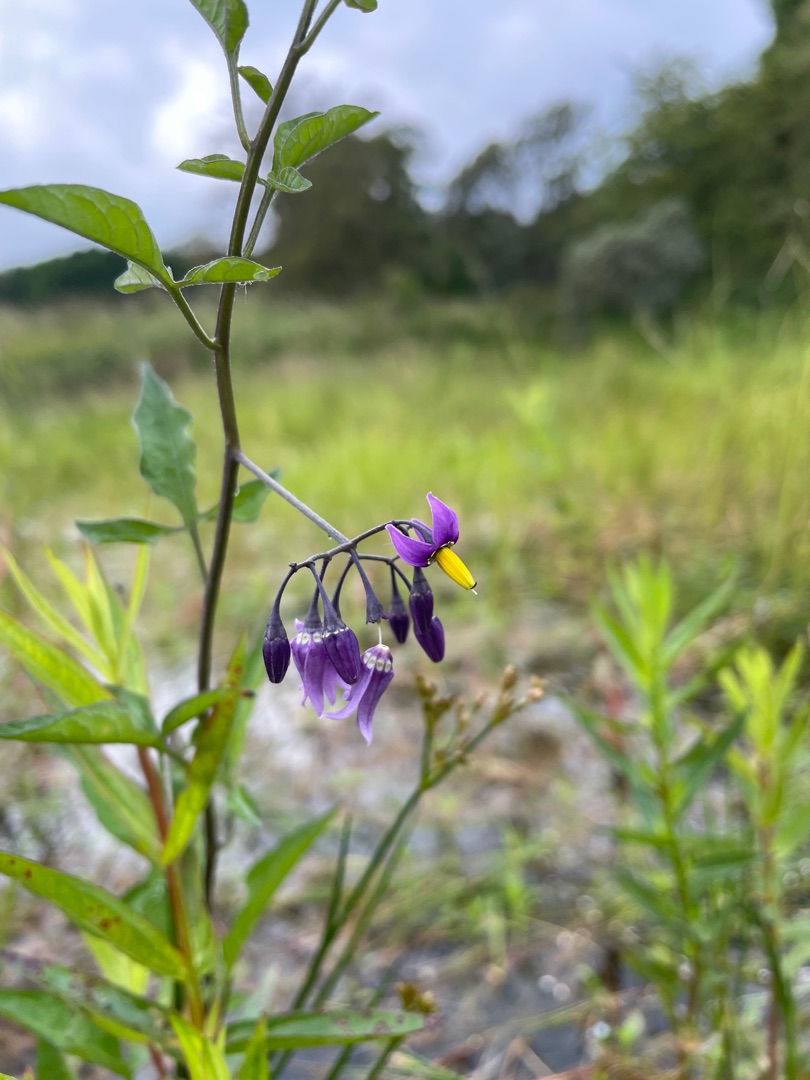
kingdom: Plantae
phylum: Tracheophyta
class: Magnoliopsida
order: Solanales
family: Solanaceae
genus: Solanum
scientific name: Solanum dulcamara
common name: Bittersød natskygge
